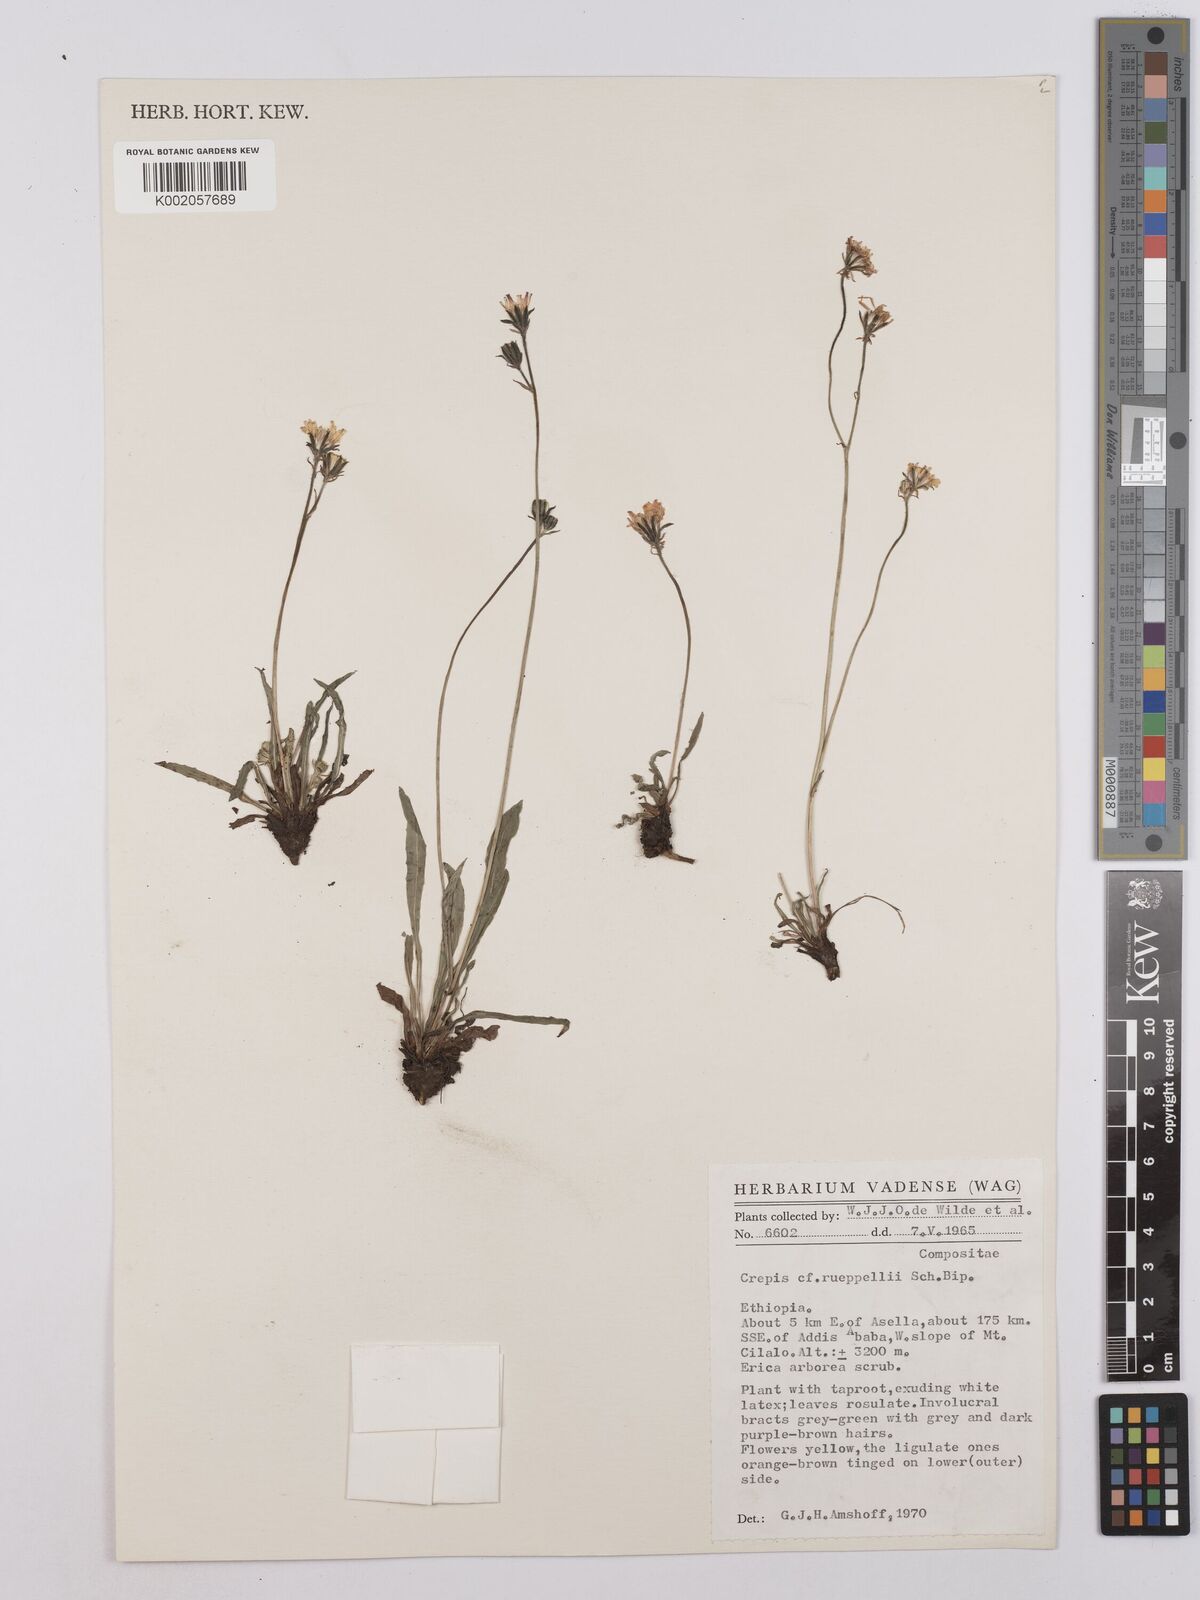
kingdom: Plantae
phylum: Tracheophyta
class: Magnoliopsida
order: Asterales
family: Asteraceae
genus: Crepis
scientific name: Crepis rueppellii
